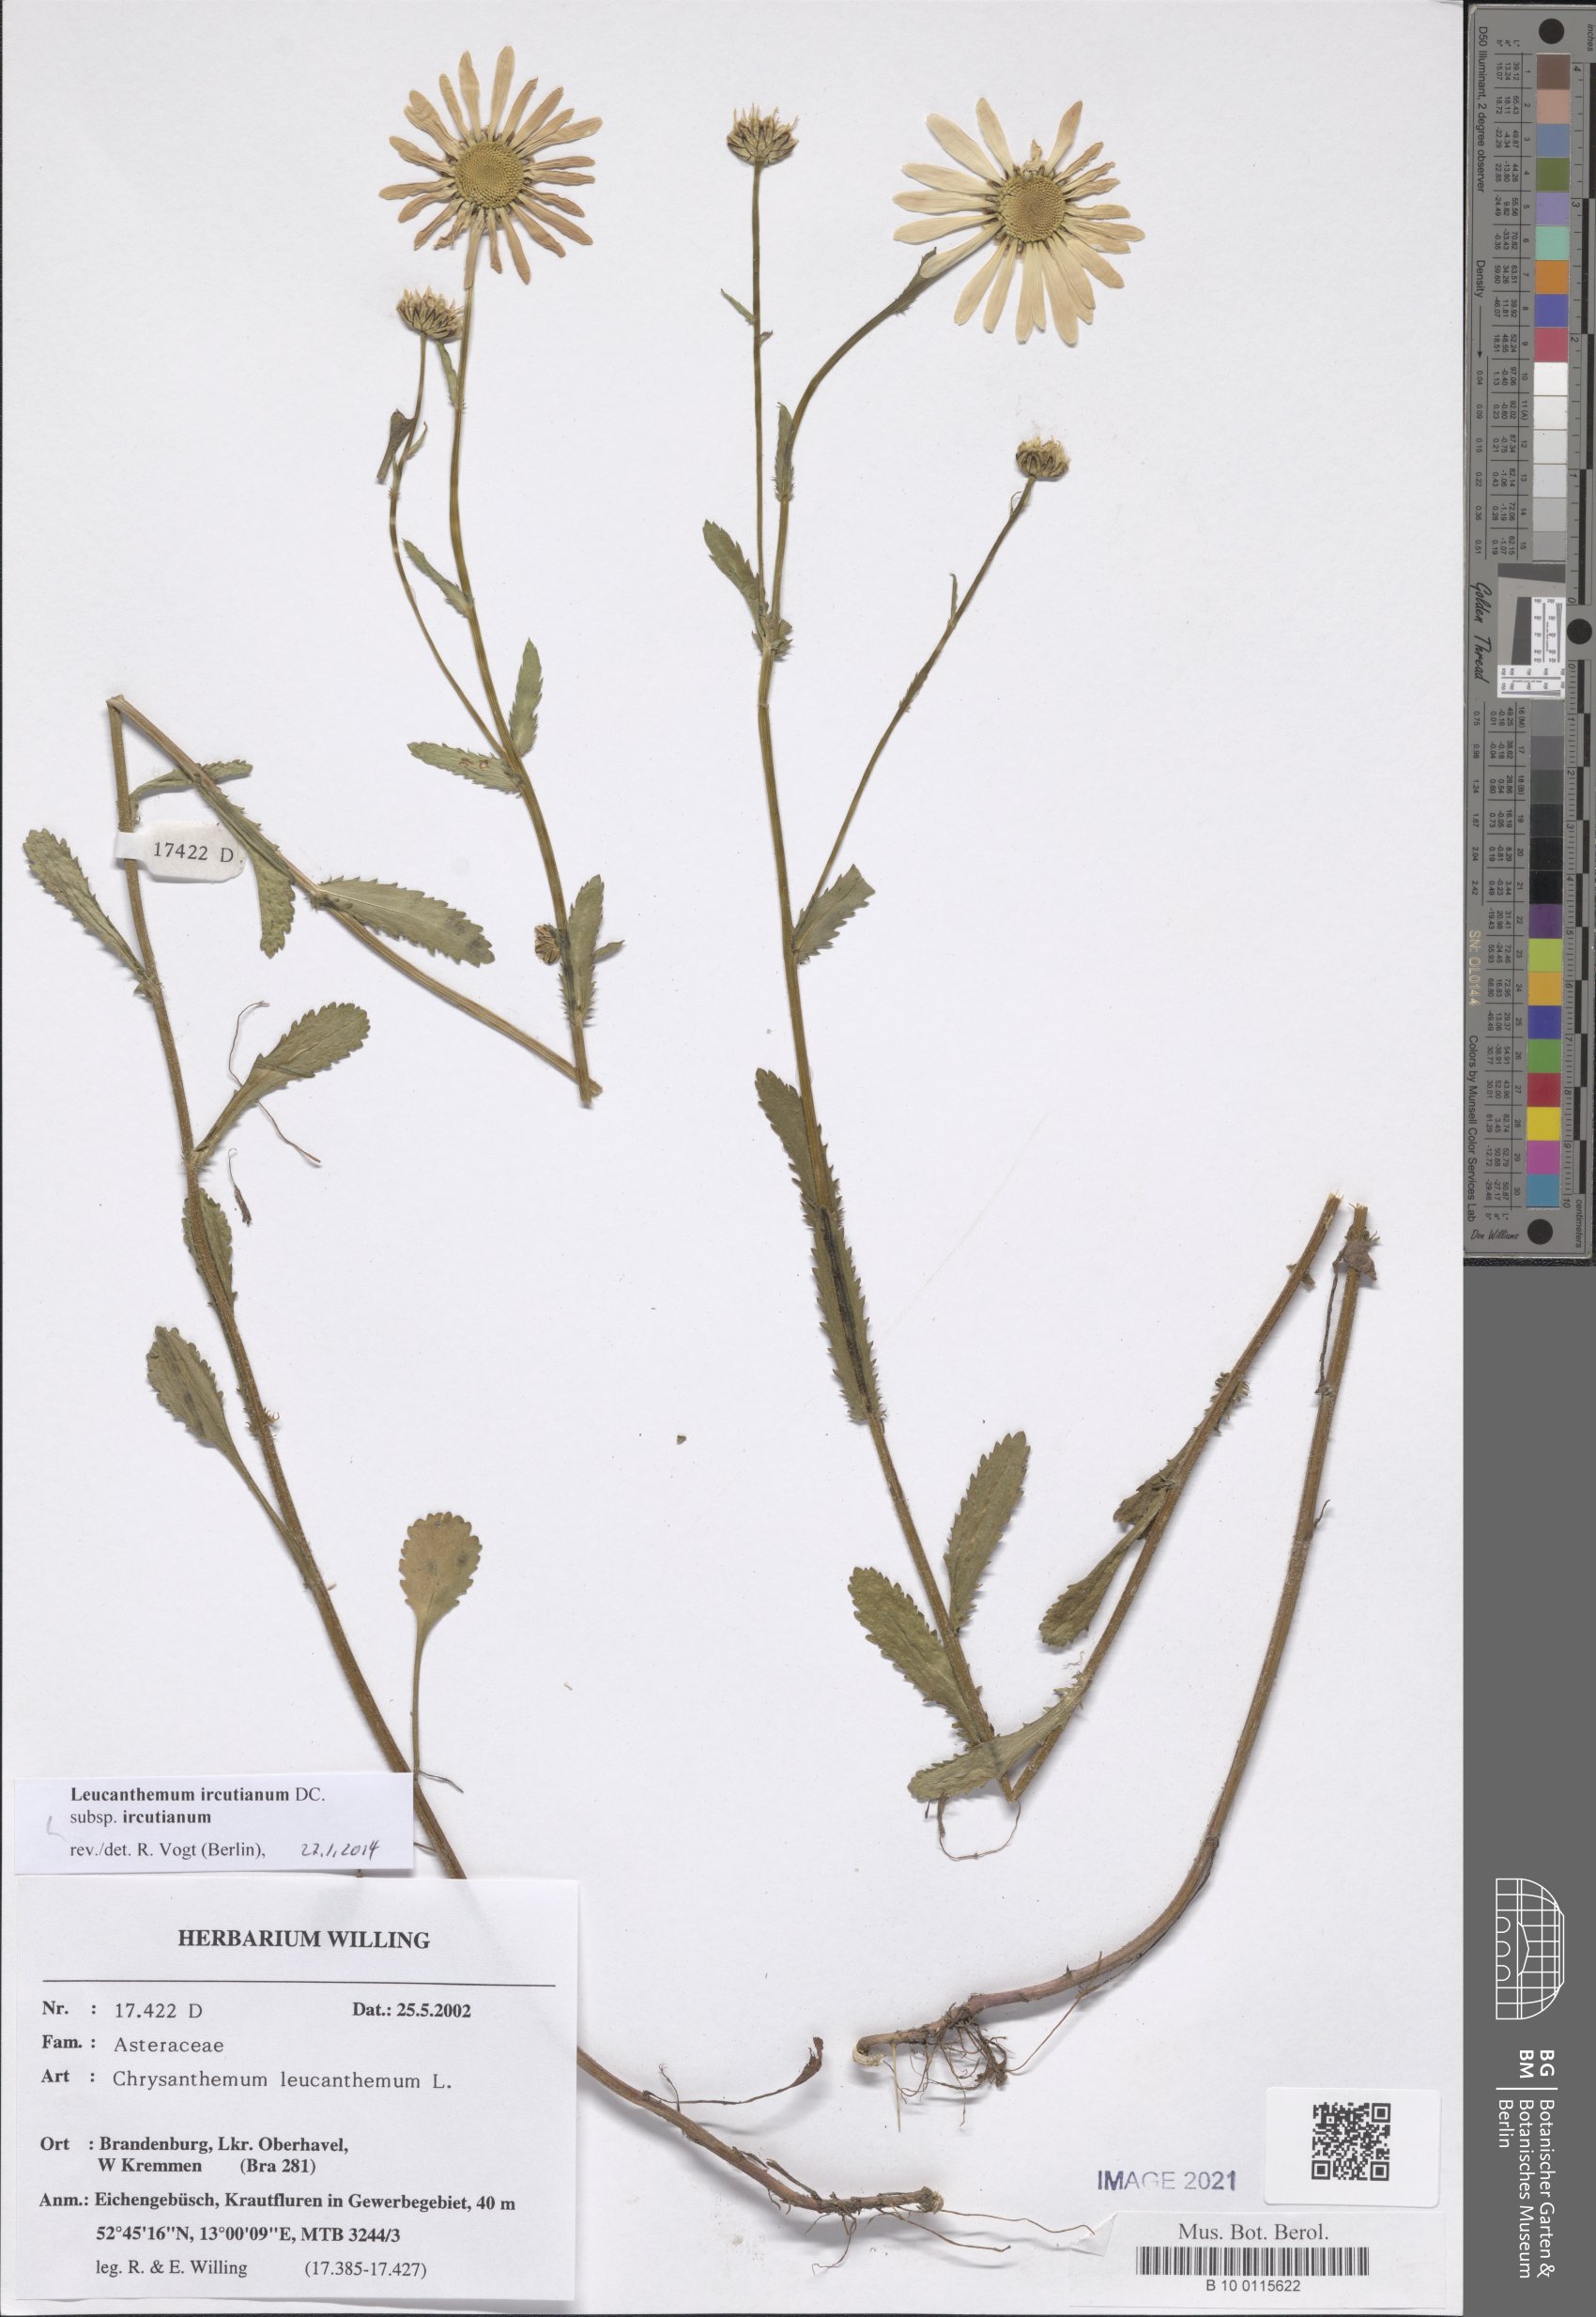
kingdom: Plantae
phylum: Tracheophyta
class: Magnoliopsida
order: Asterales
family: Asteraceae
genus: Leucanthemum
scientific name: Leucanthemum ircutianum
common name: Daisy
